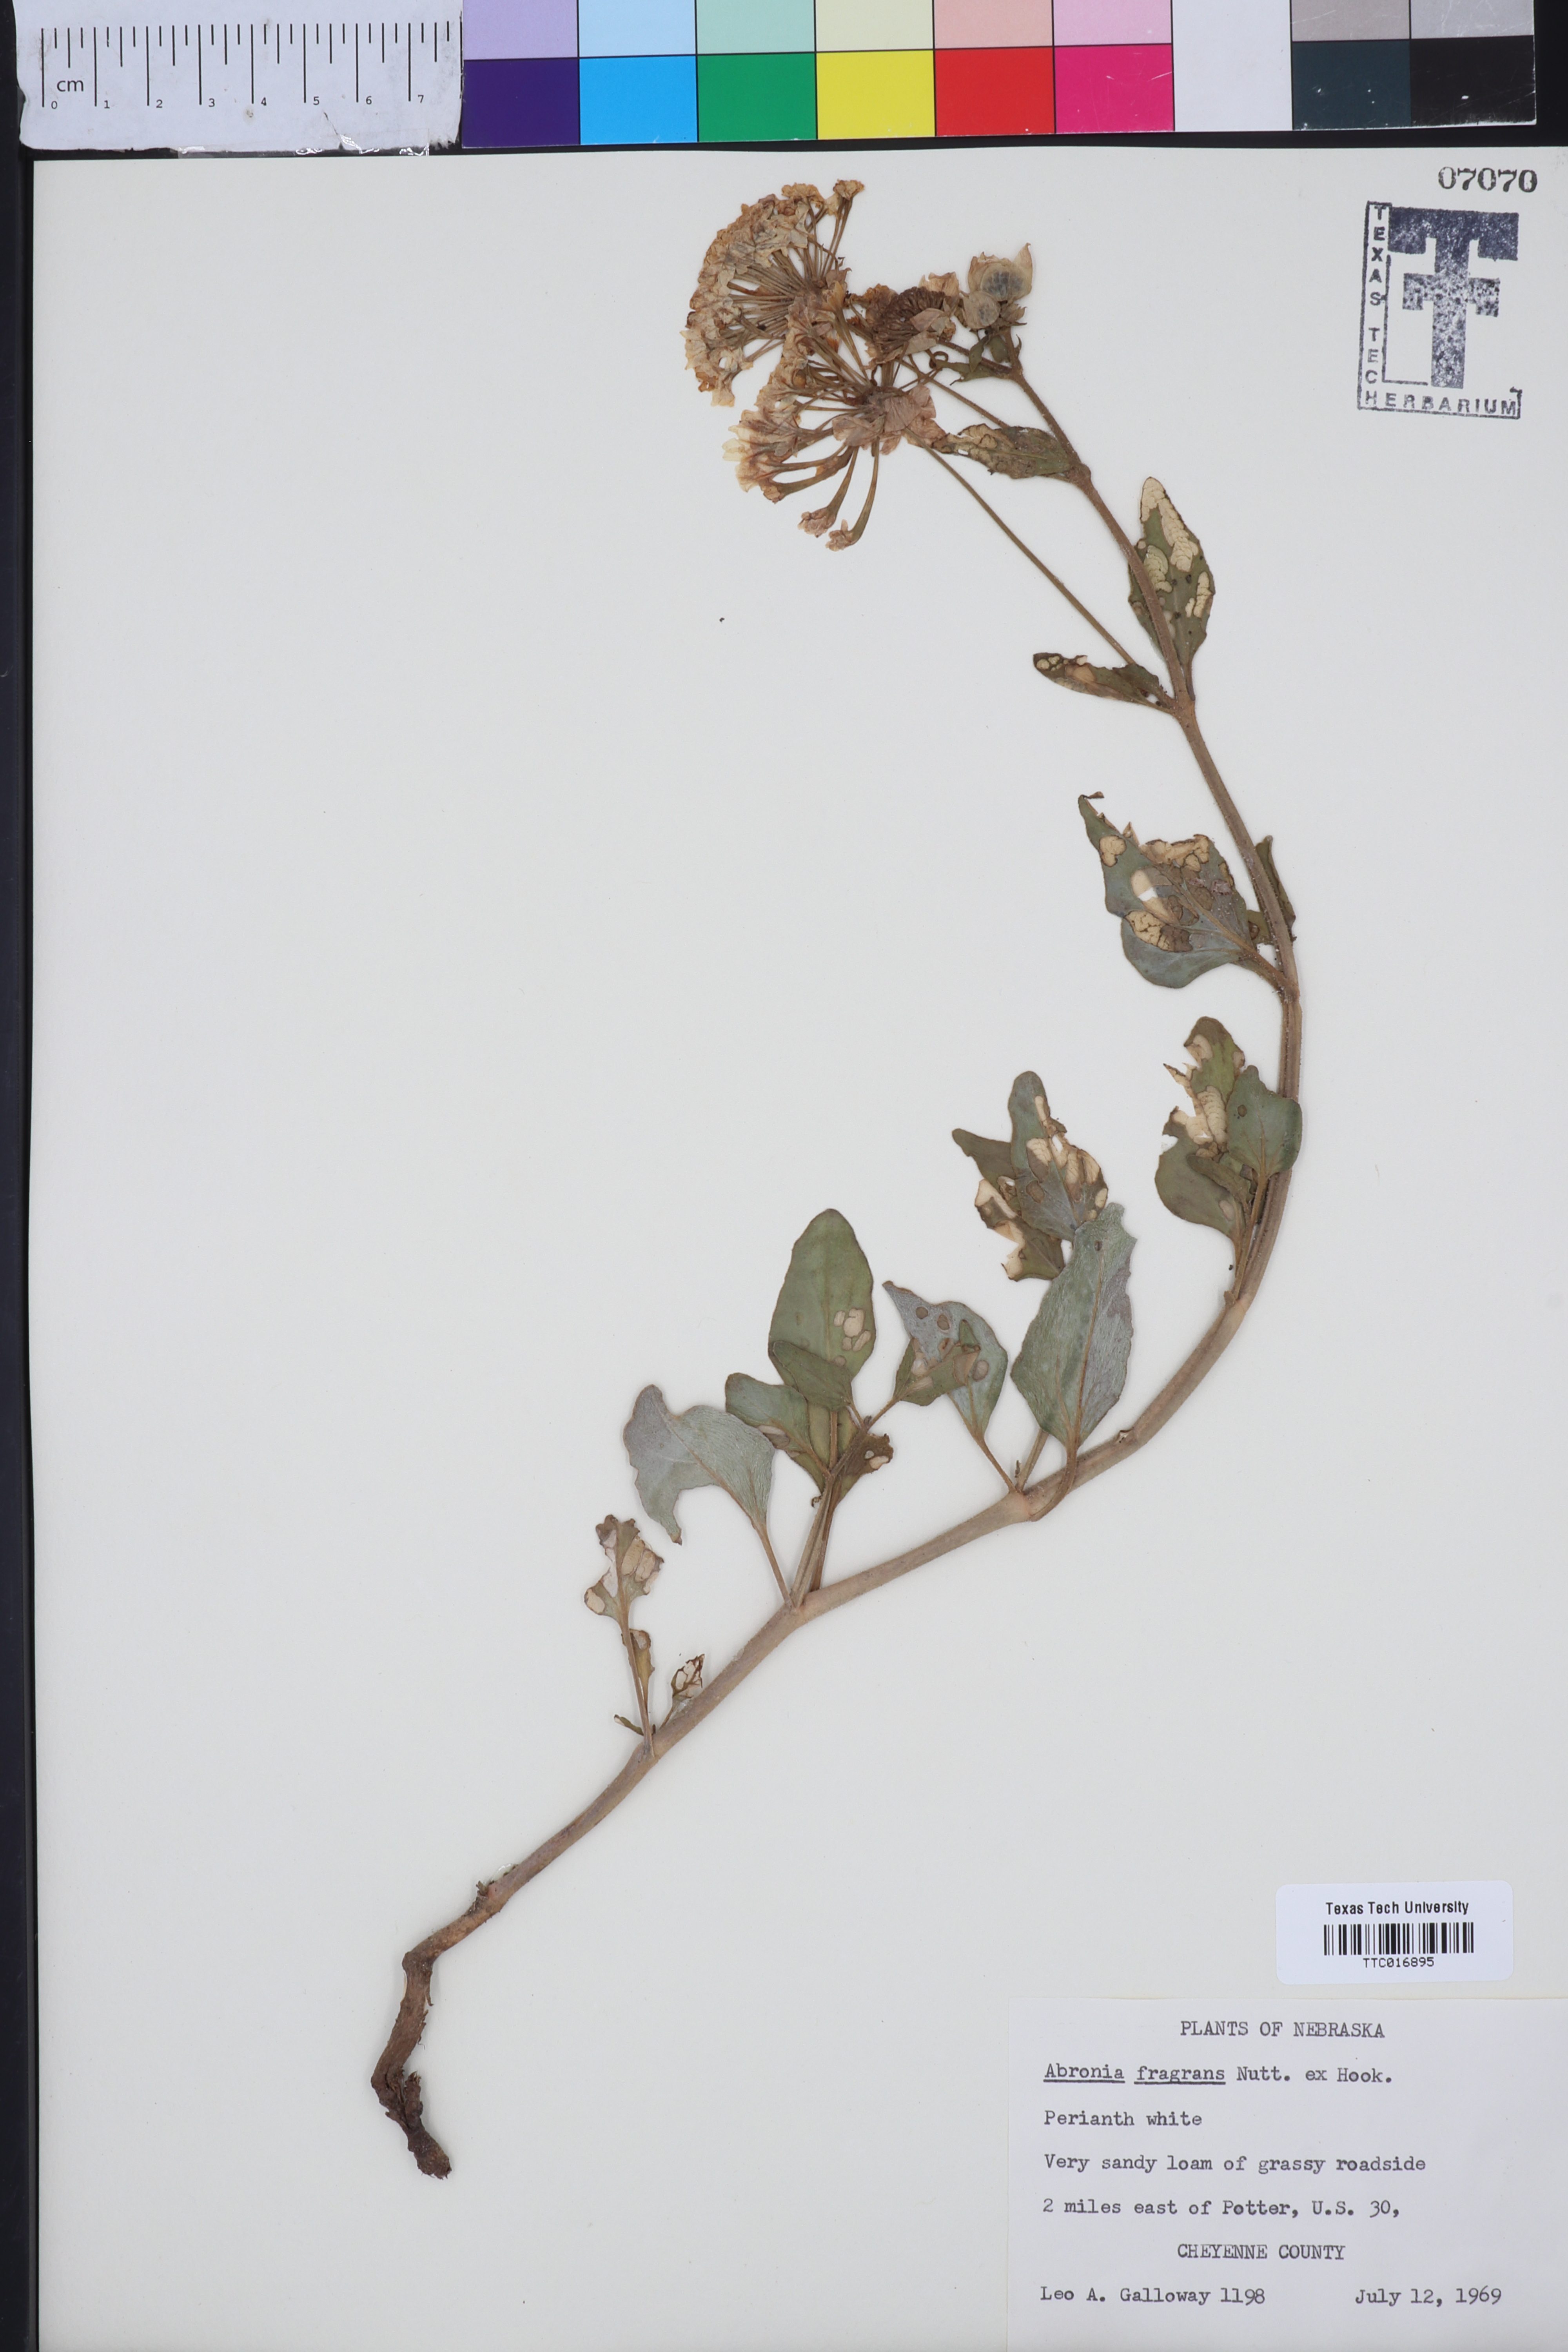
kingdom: Plantae
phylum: Tracheophyta
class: Magnoliopsida
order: Caryophyllales
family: Nyctaginaceae
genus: Abronia
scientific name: Abronia fragrans
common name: Fragrant sand-verbena
